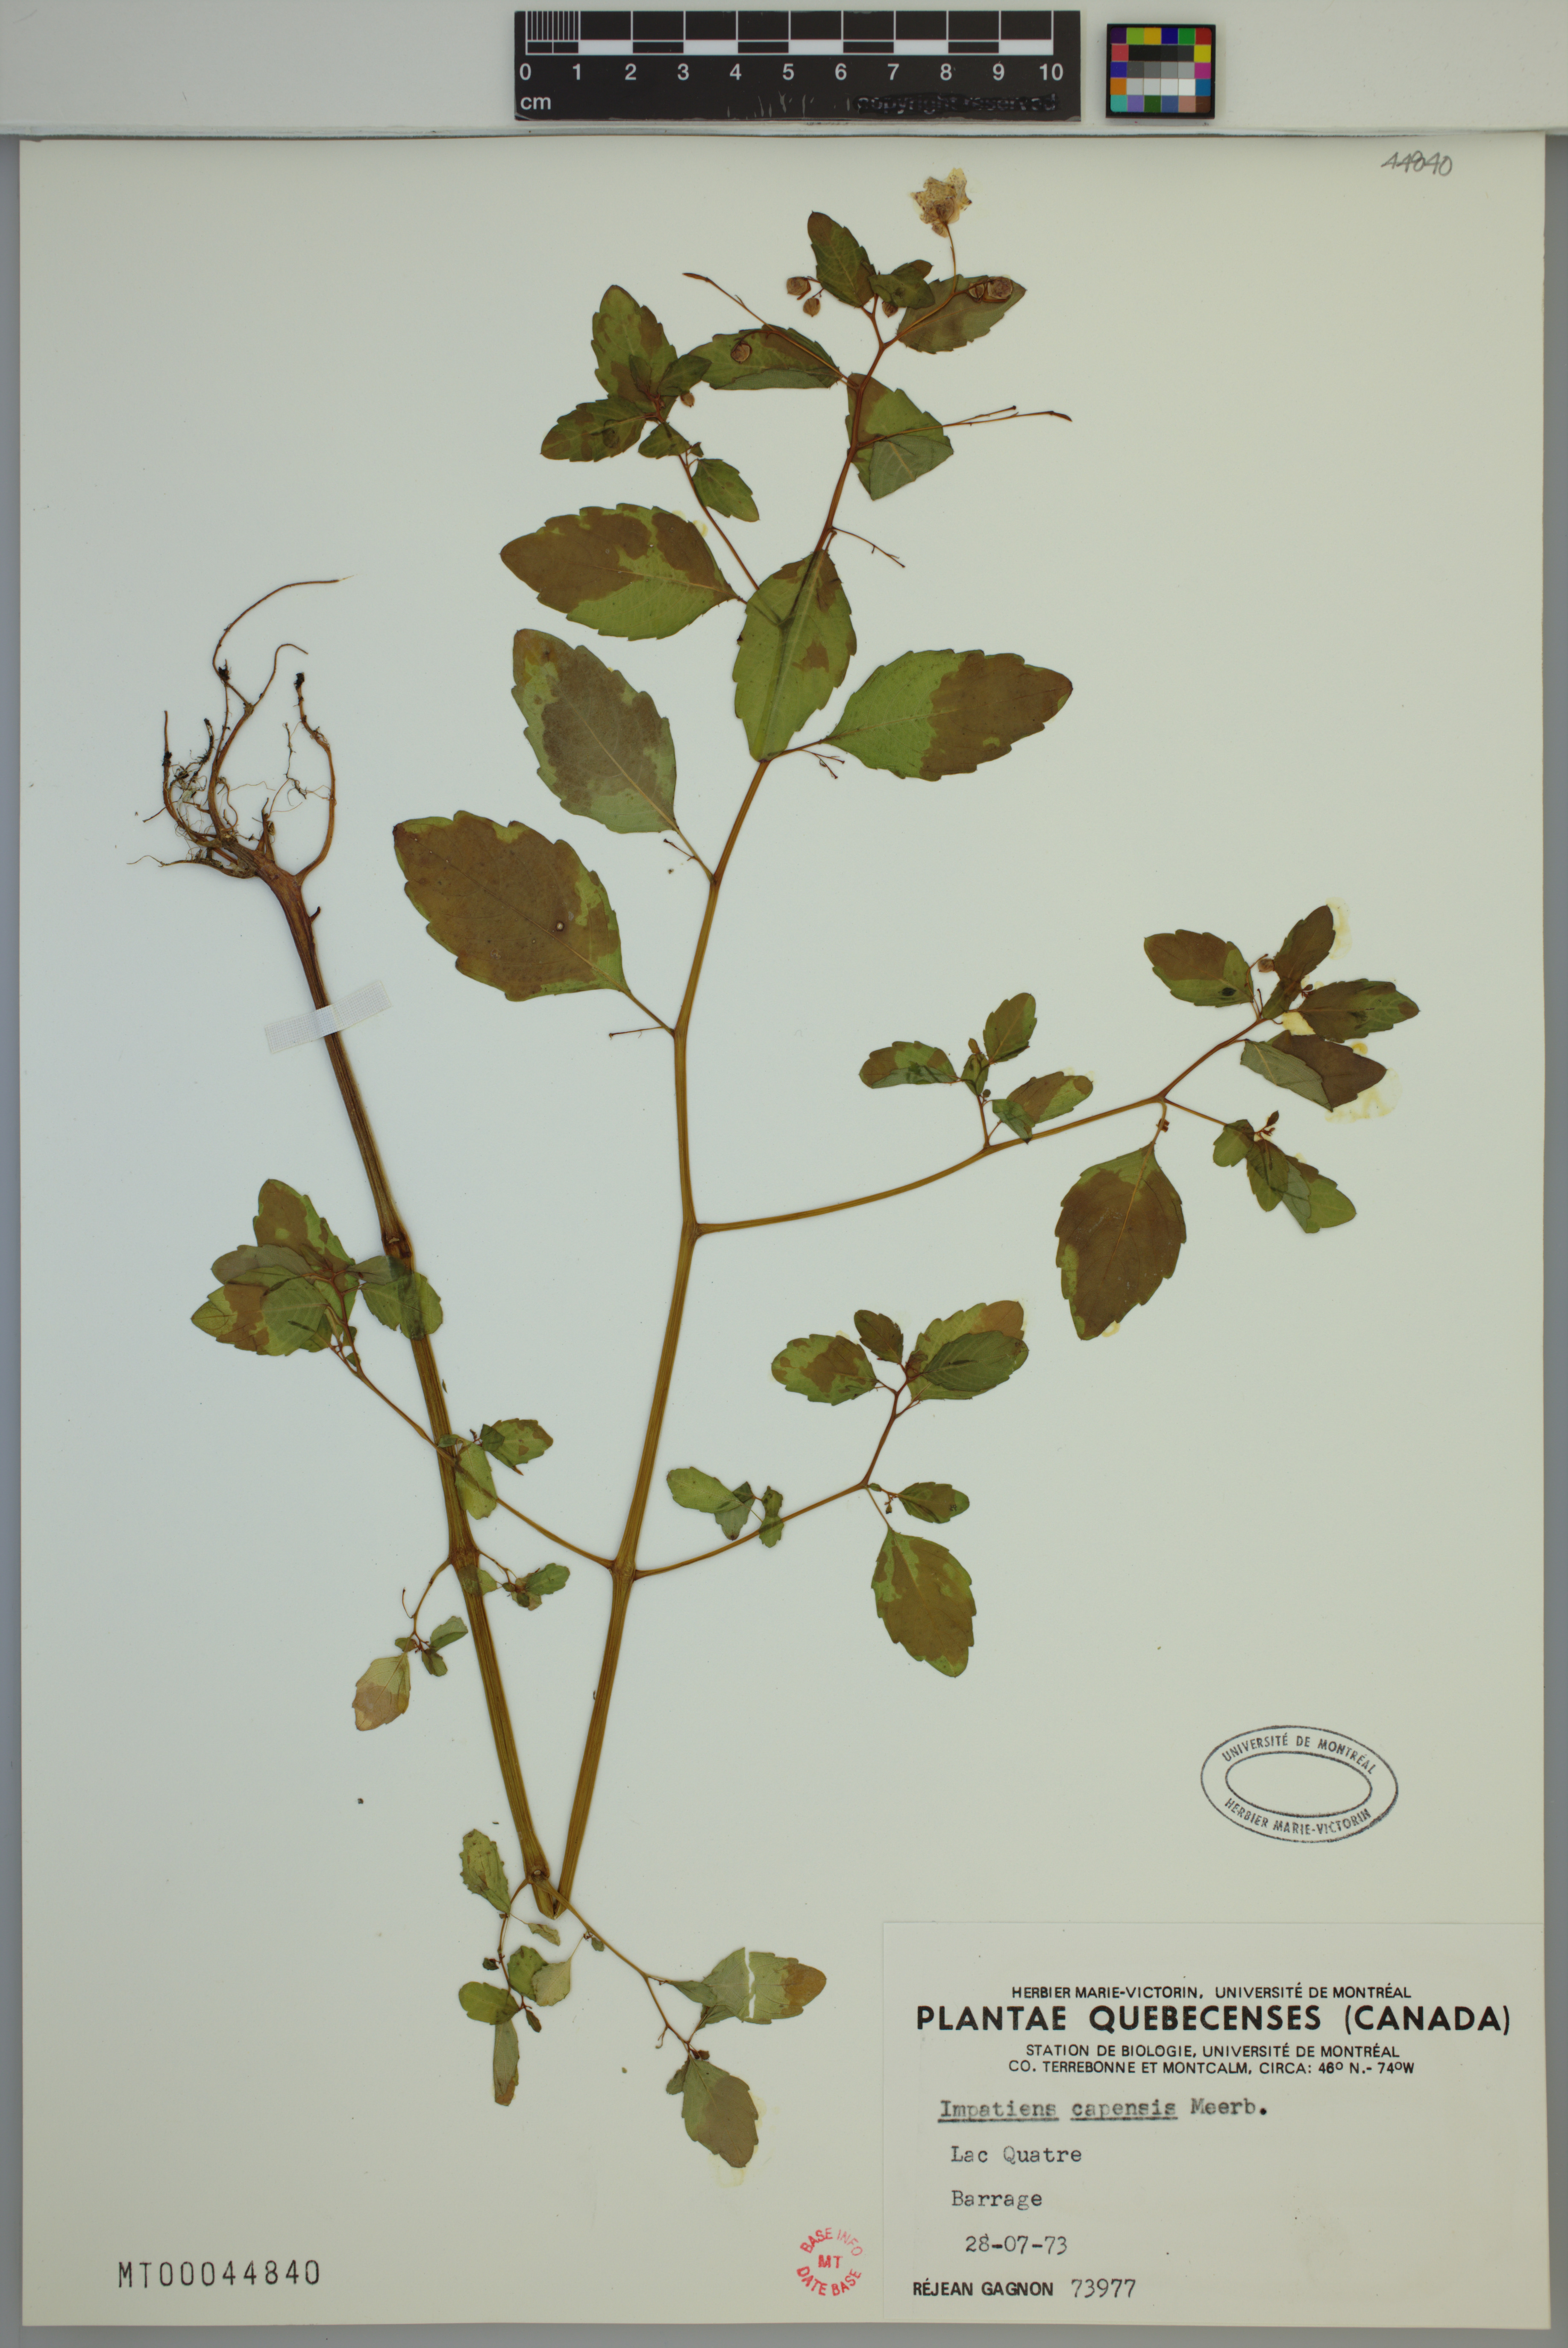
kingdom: Plantae
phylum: Tracheophyta
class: Magnoliopsida
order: Ericales
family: Balsaminaceae
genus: Impatiens
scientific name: Impatiens capensis
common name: Orange balsam
